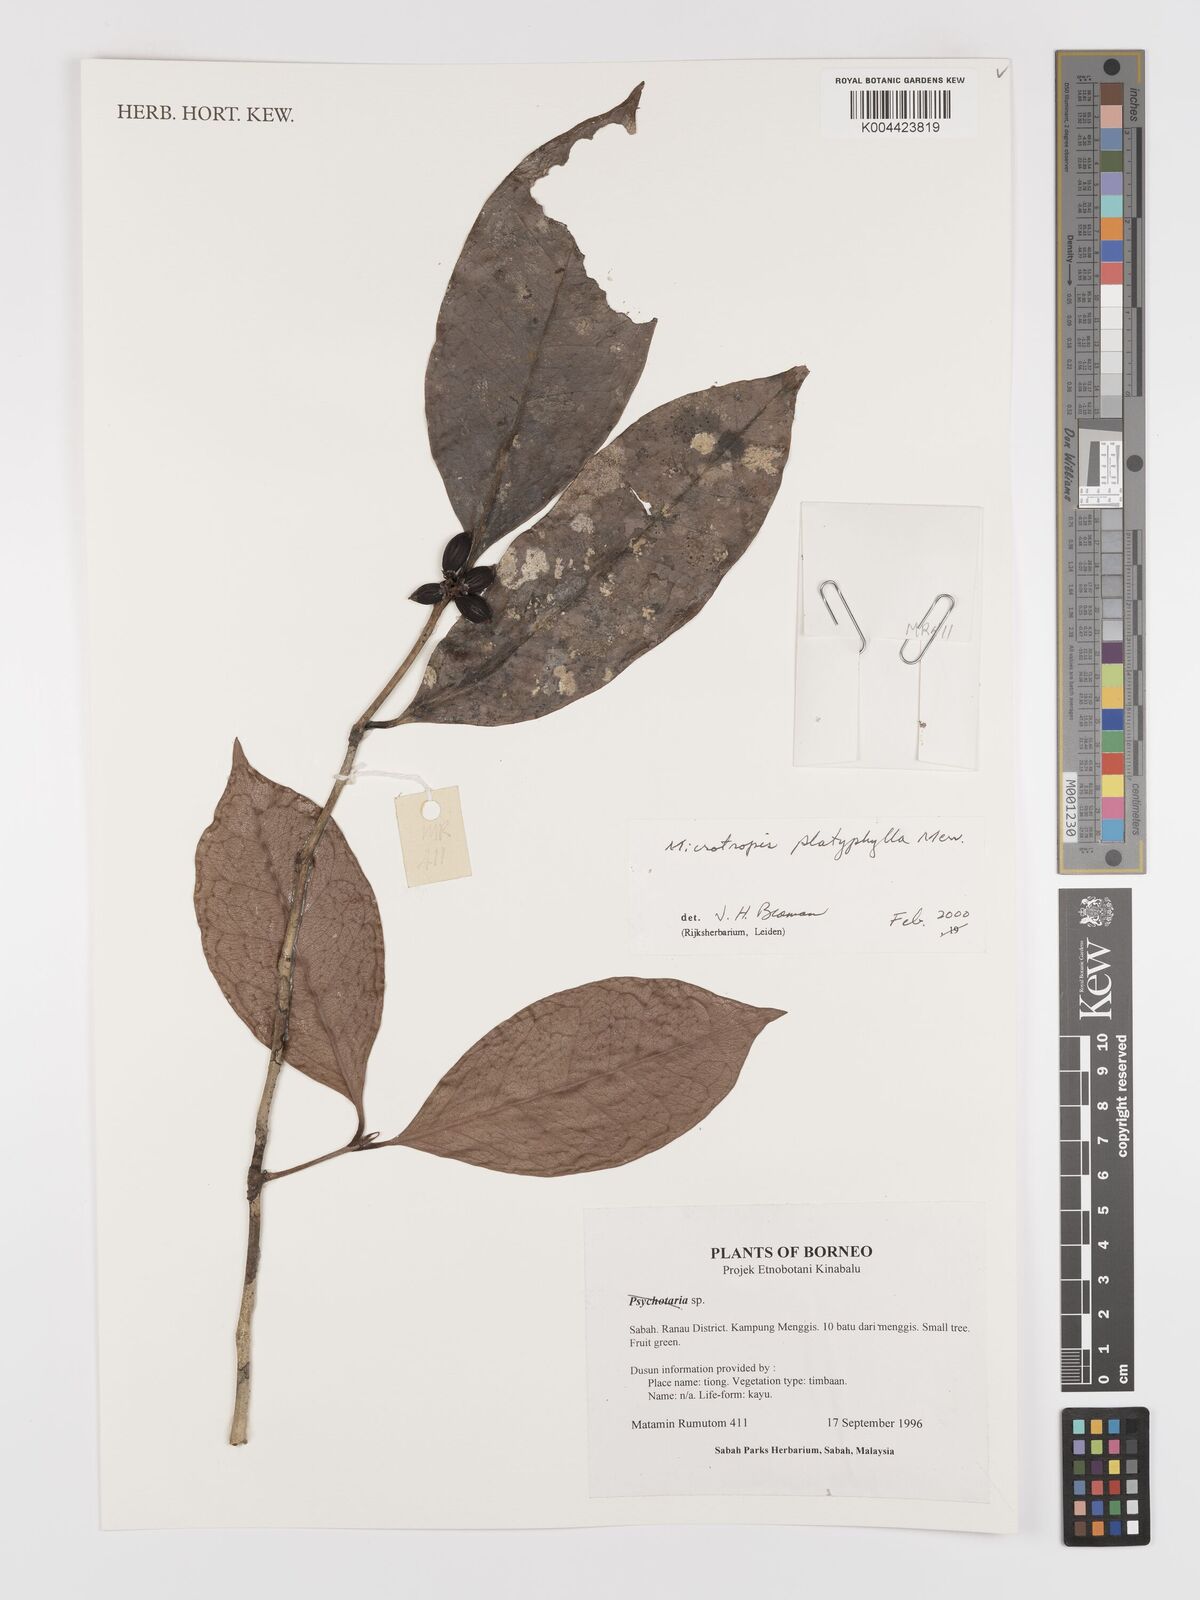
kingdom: Plantae
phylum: Tracheophyta
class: Magnoliopsida
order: Celastrales
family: Celastraceae
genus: Microtropis
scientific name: Microtropis platyphylla
